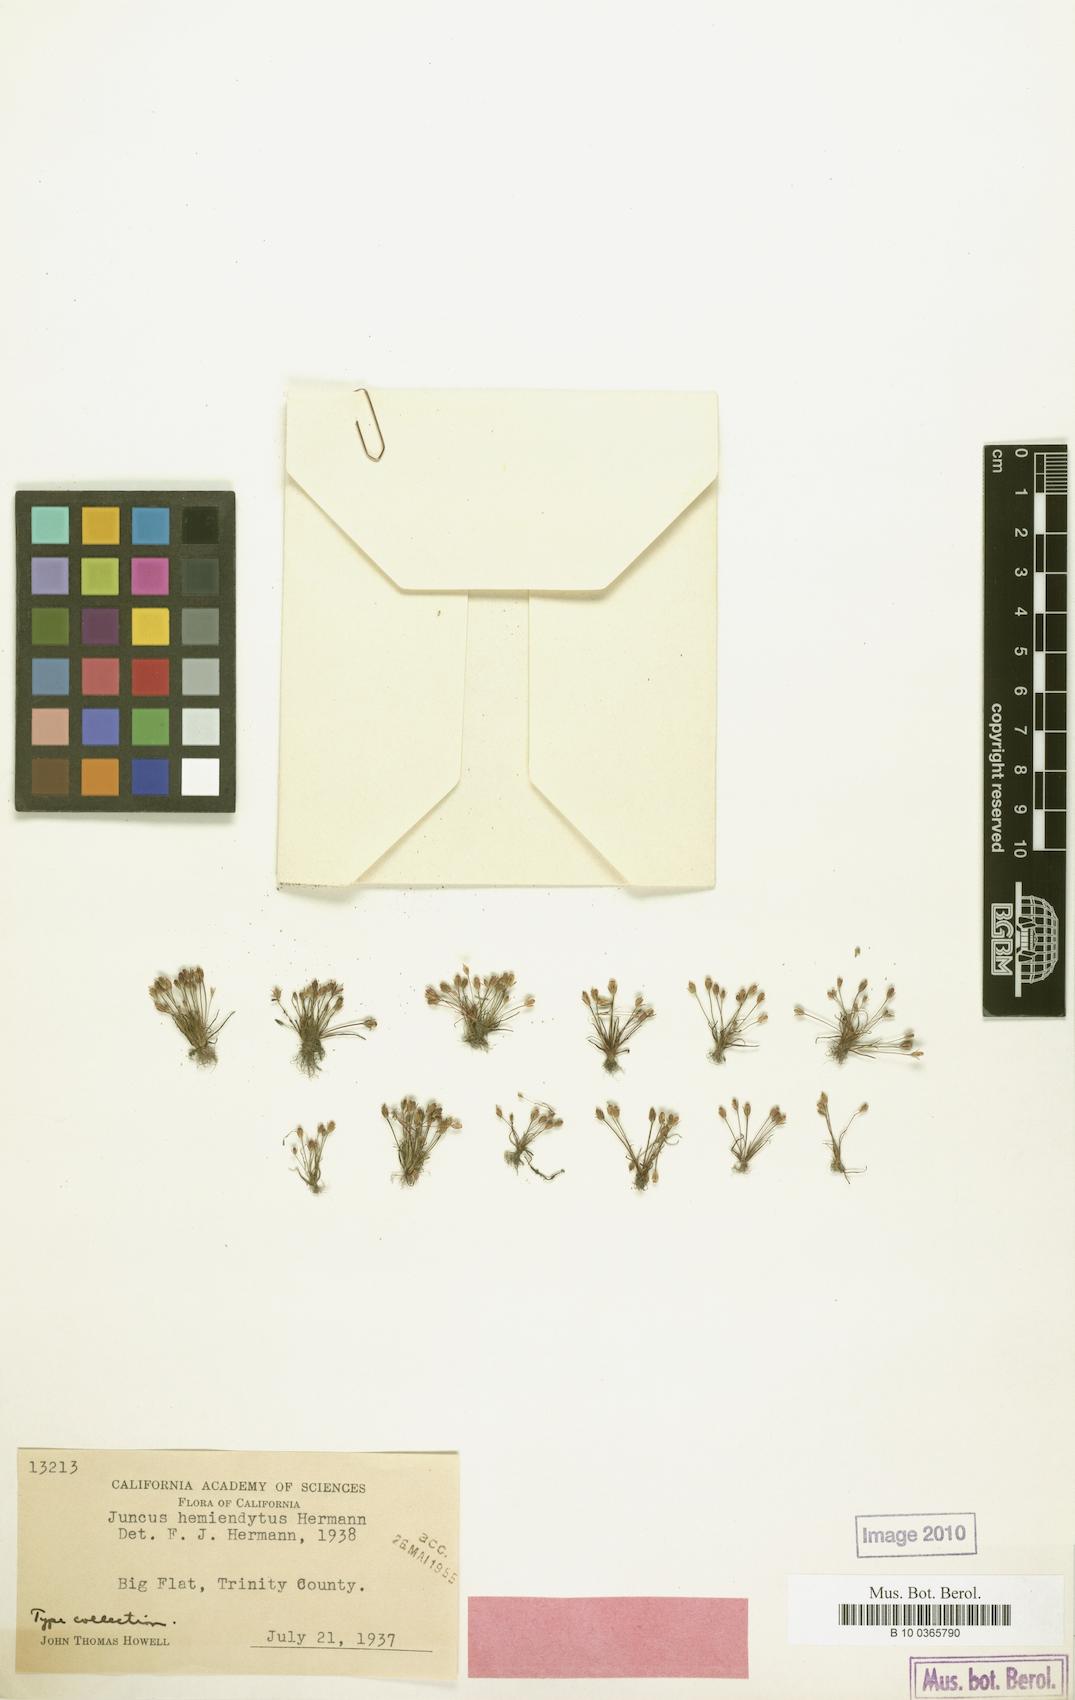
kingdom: Plantae
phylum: Tracheophyta
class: Liliopsida
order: Poales
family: Juncaceae
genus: Juncus
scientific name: Juncus hemiendytus
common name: Hermann's dwarf rush
